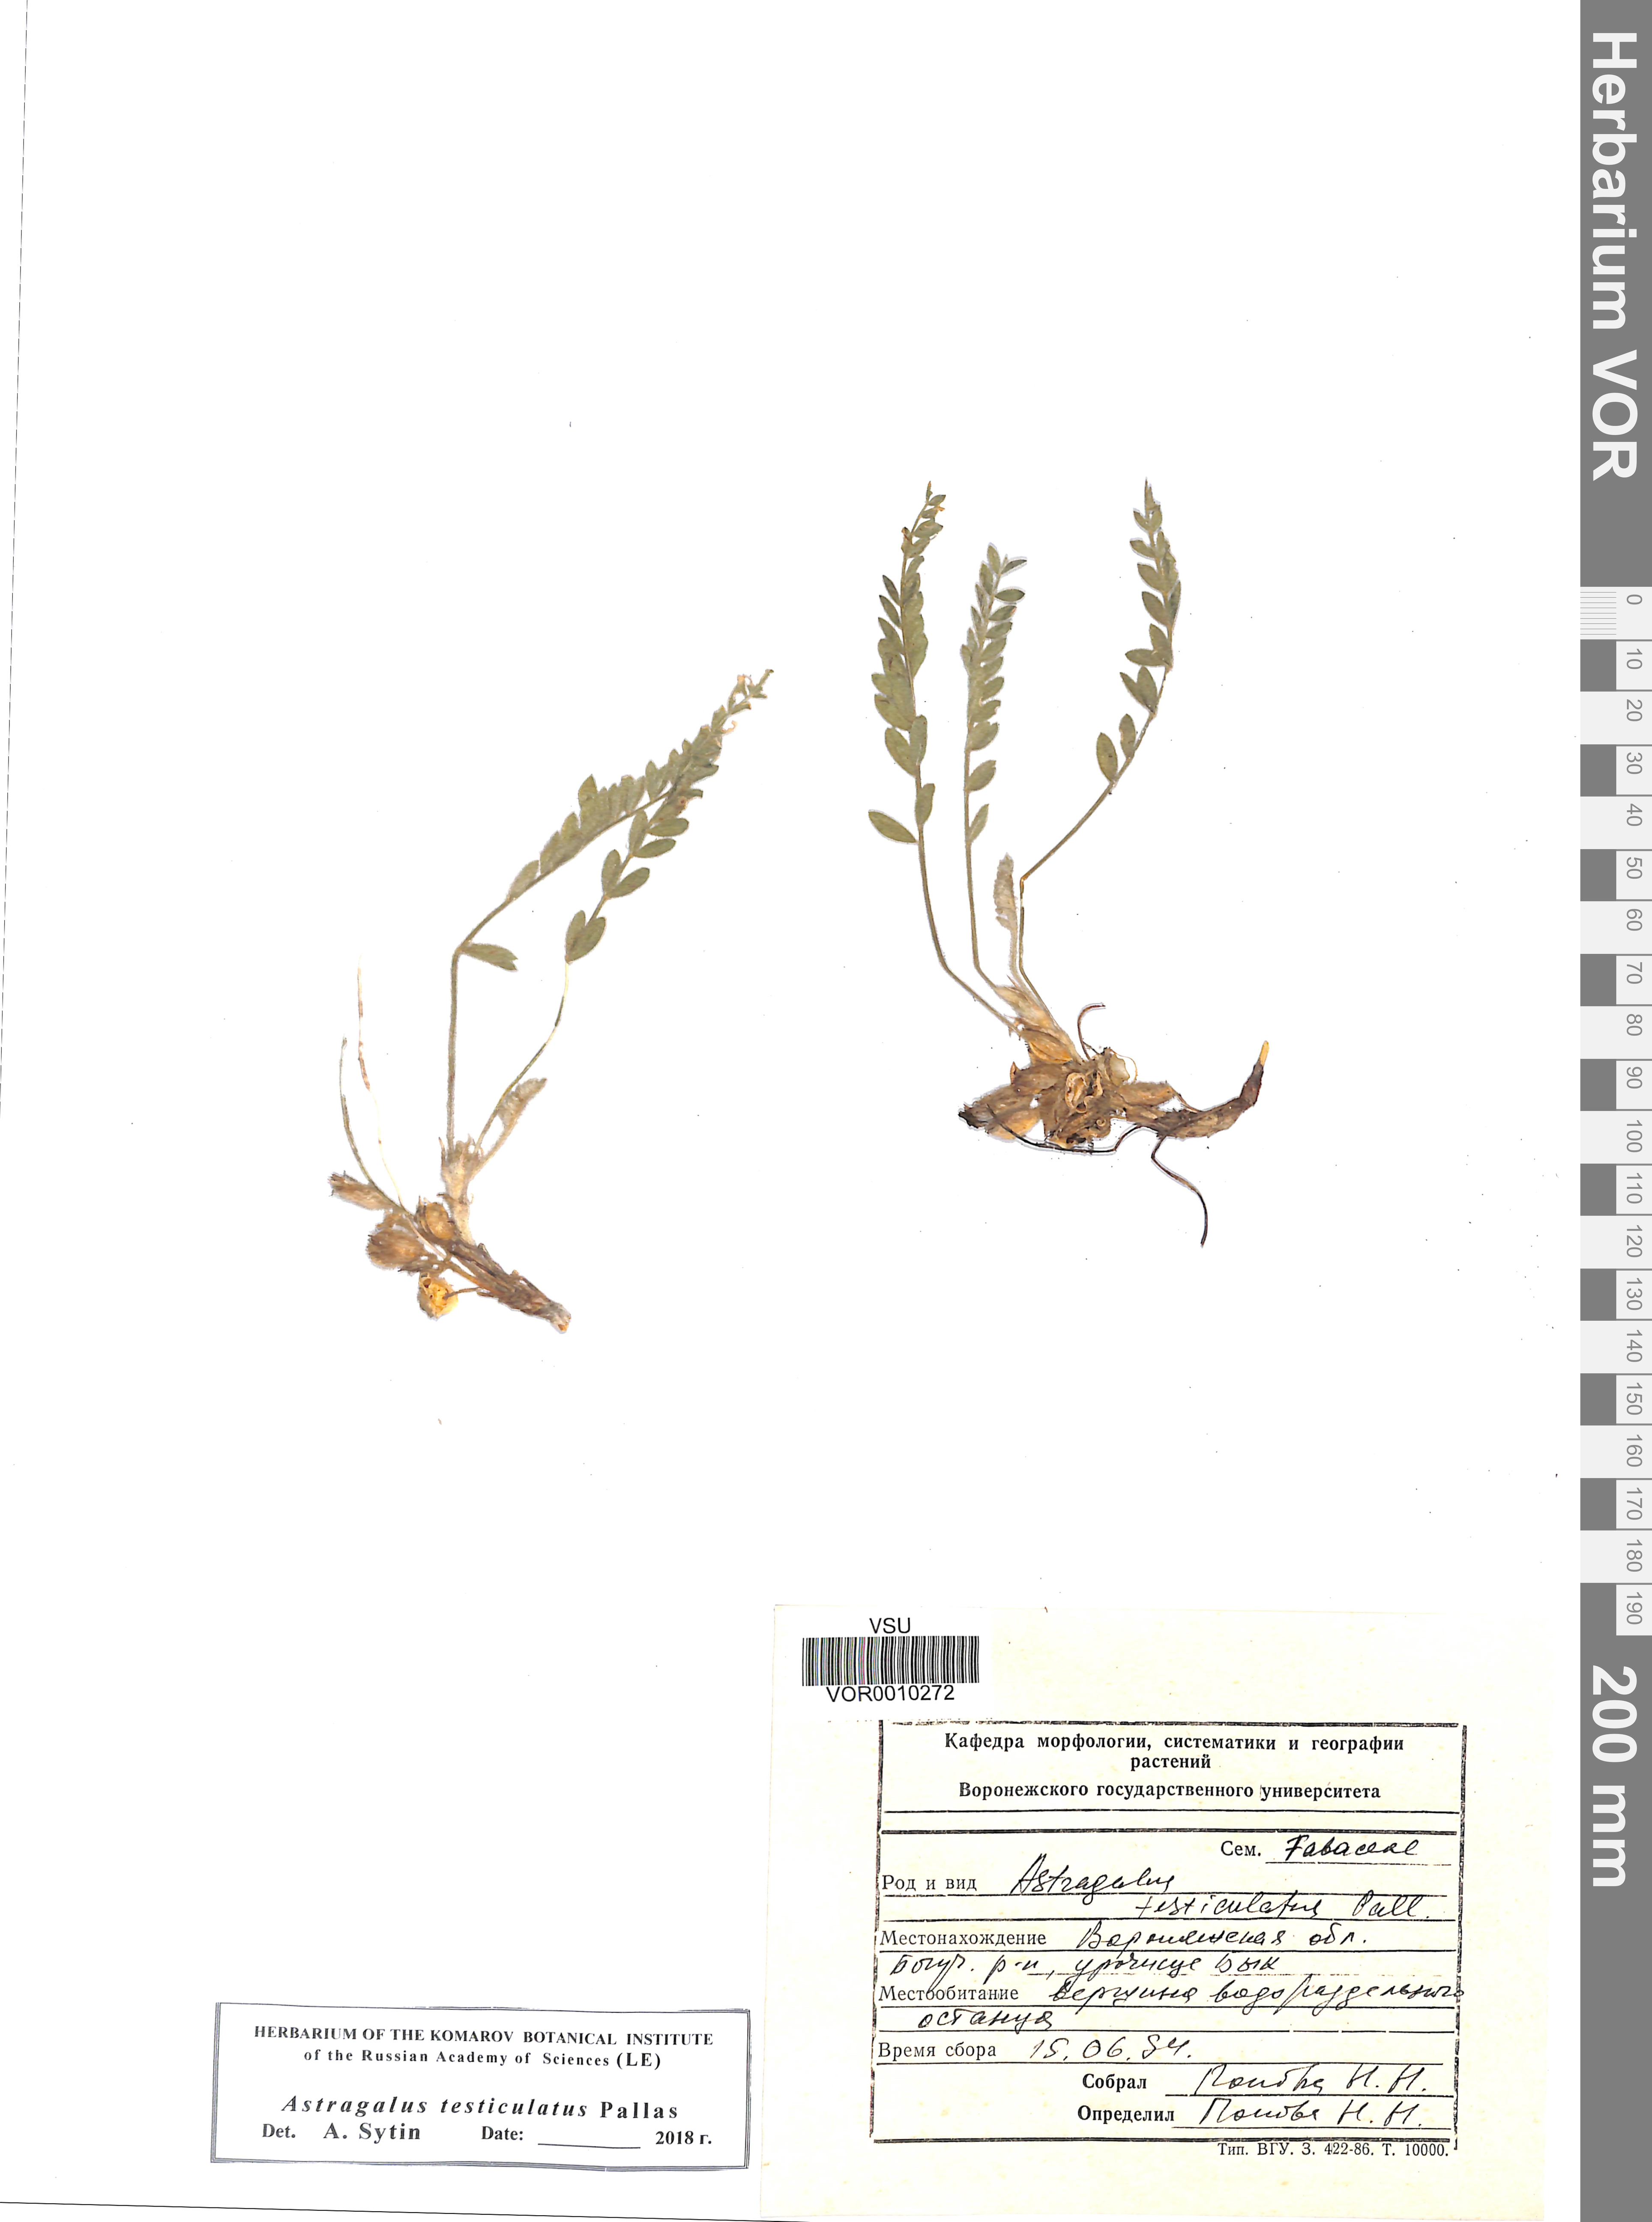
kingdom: Plantae
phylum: Tracheophyta
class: Magnoliopsida
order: Fabales
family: Fabaceae
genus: Astragalus
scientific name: Astragalus testiculatus
